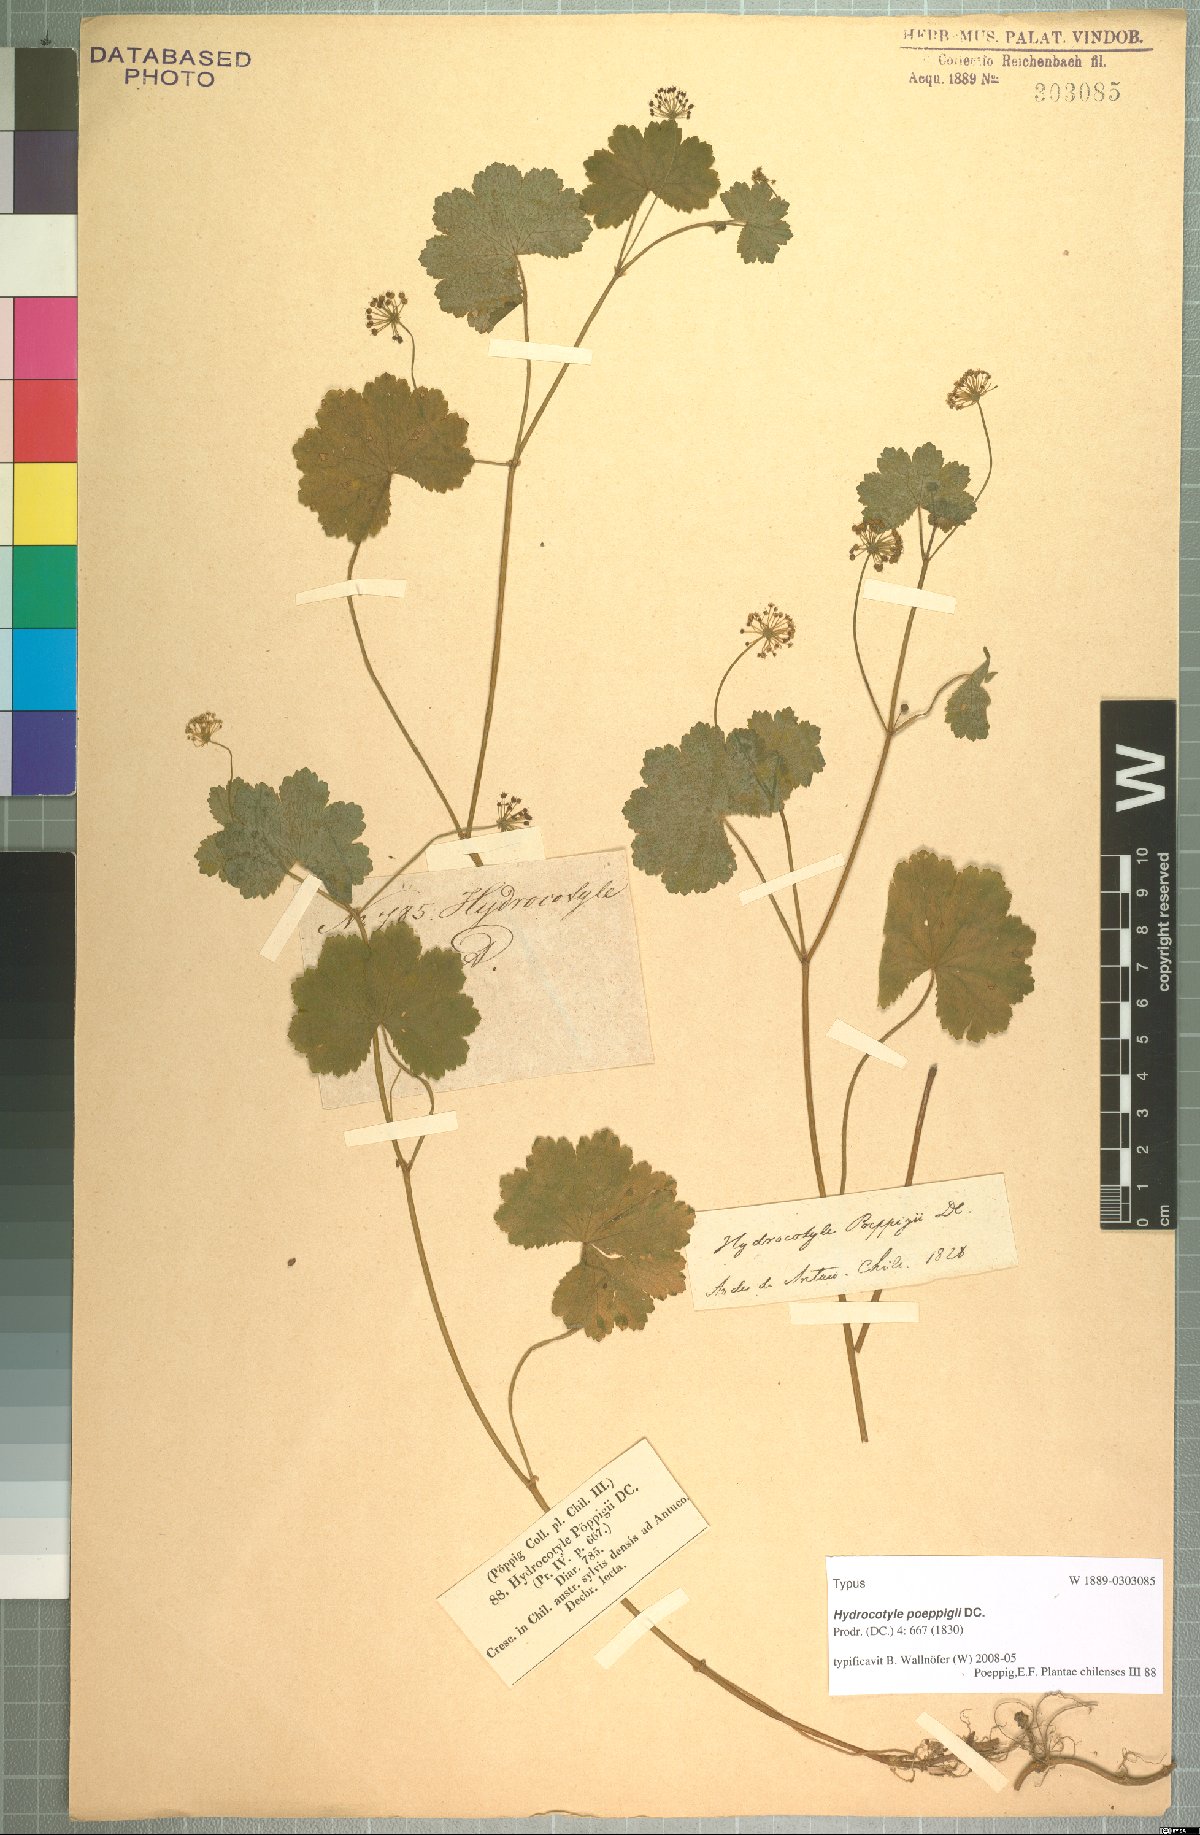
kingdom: Plantae
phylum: Tracheophyta
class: Magnoliopsida
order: Apiales
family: Araliaceae
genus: Hydrocotyle
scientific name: Hydrocotyle poeppigii
